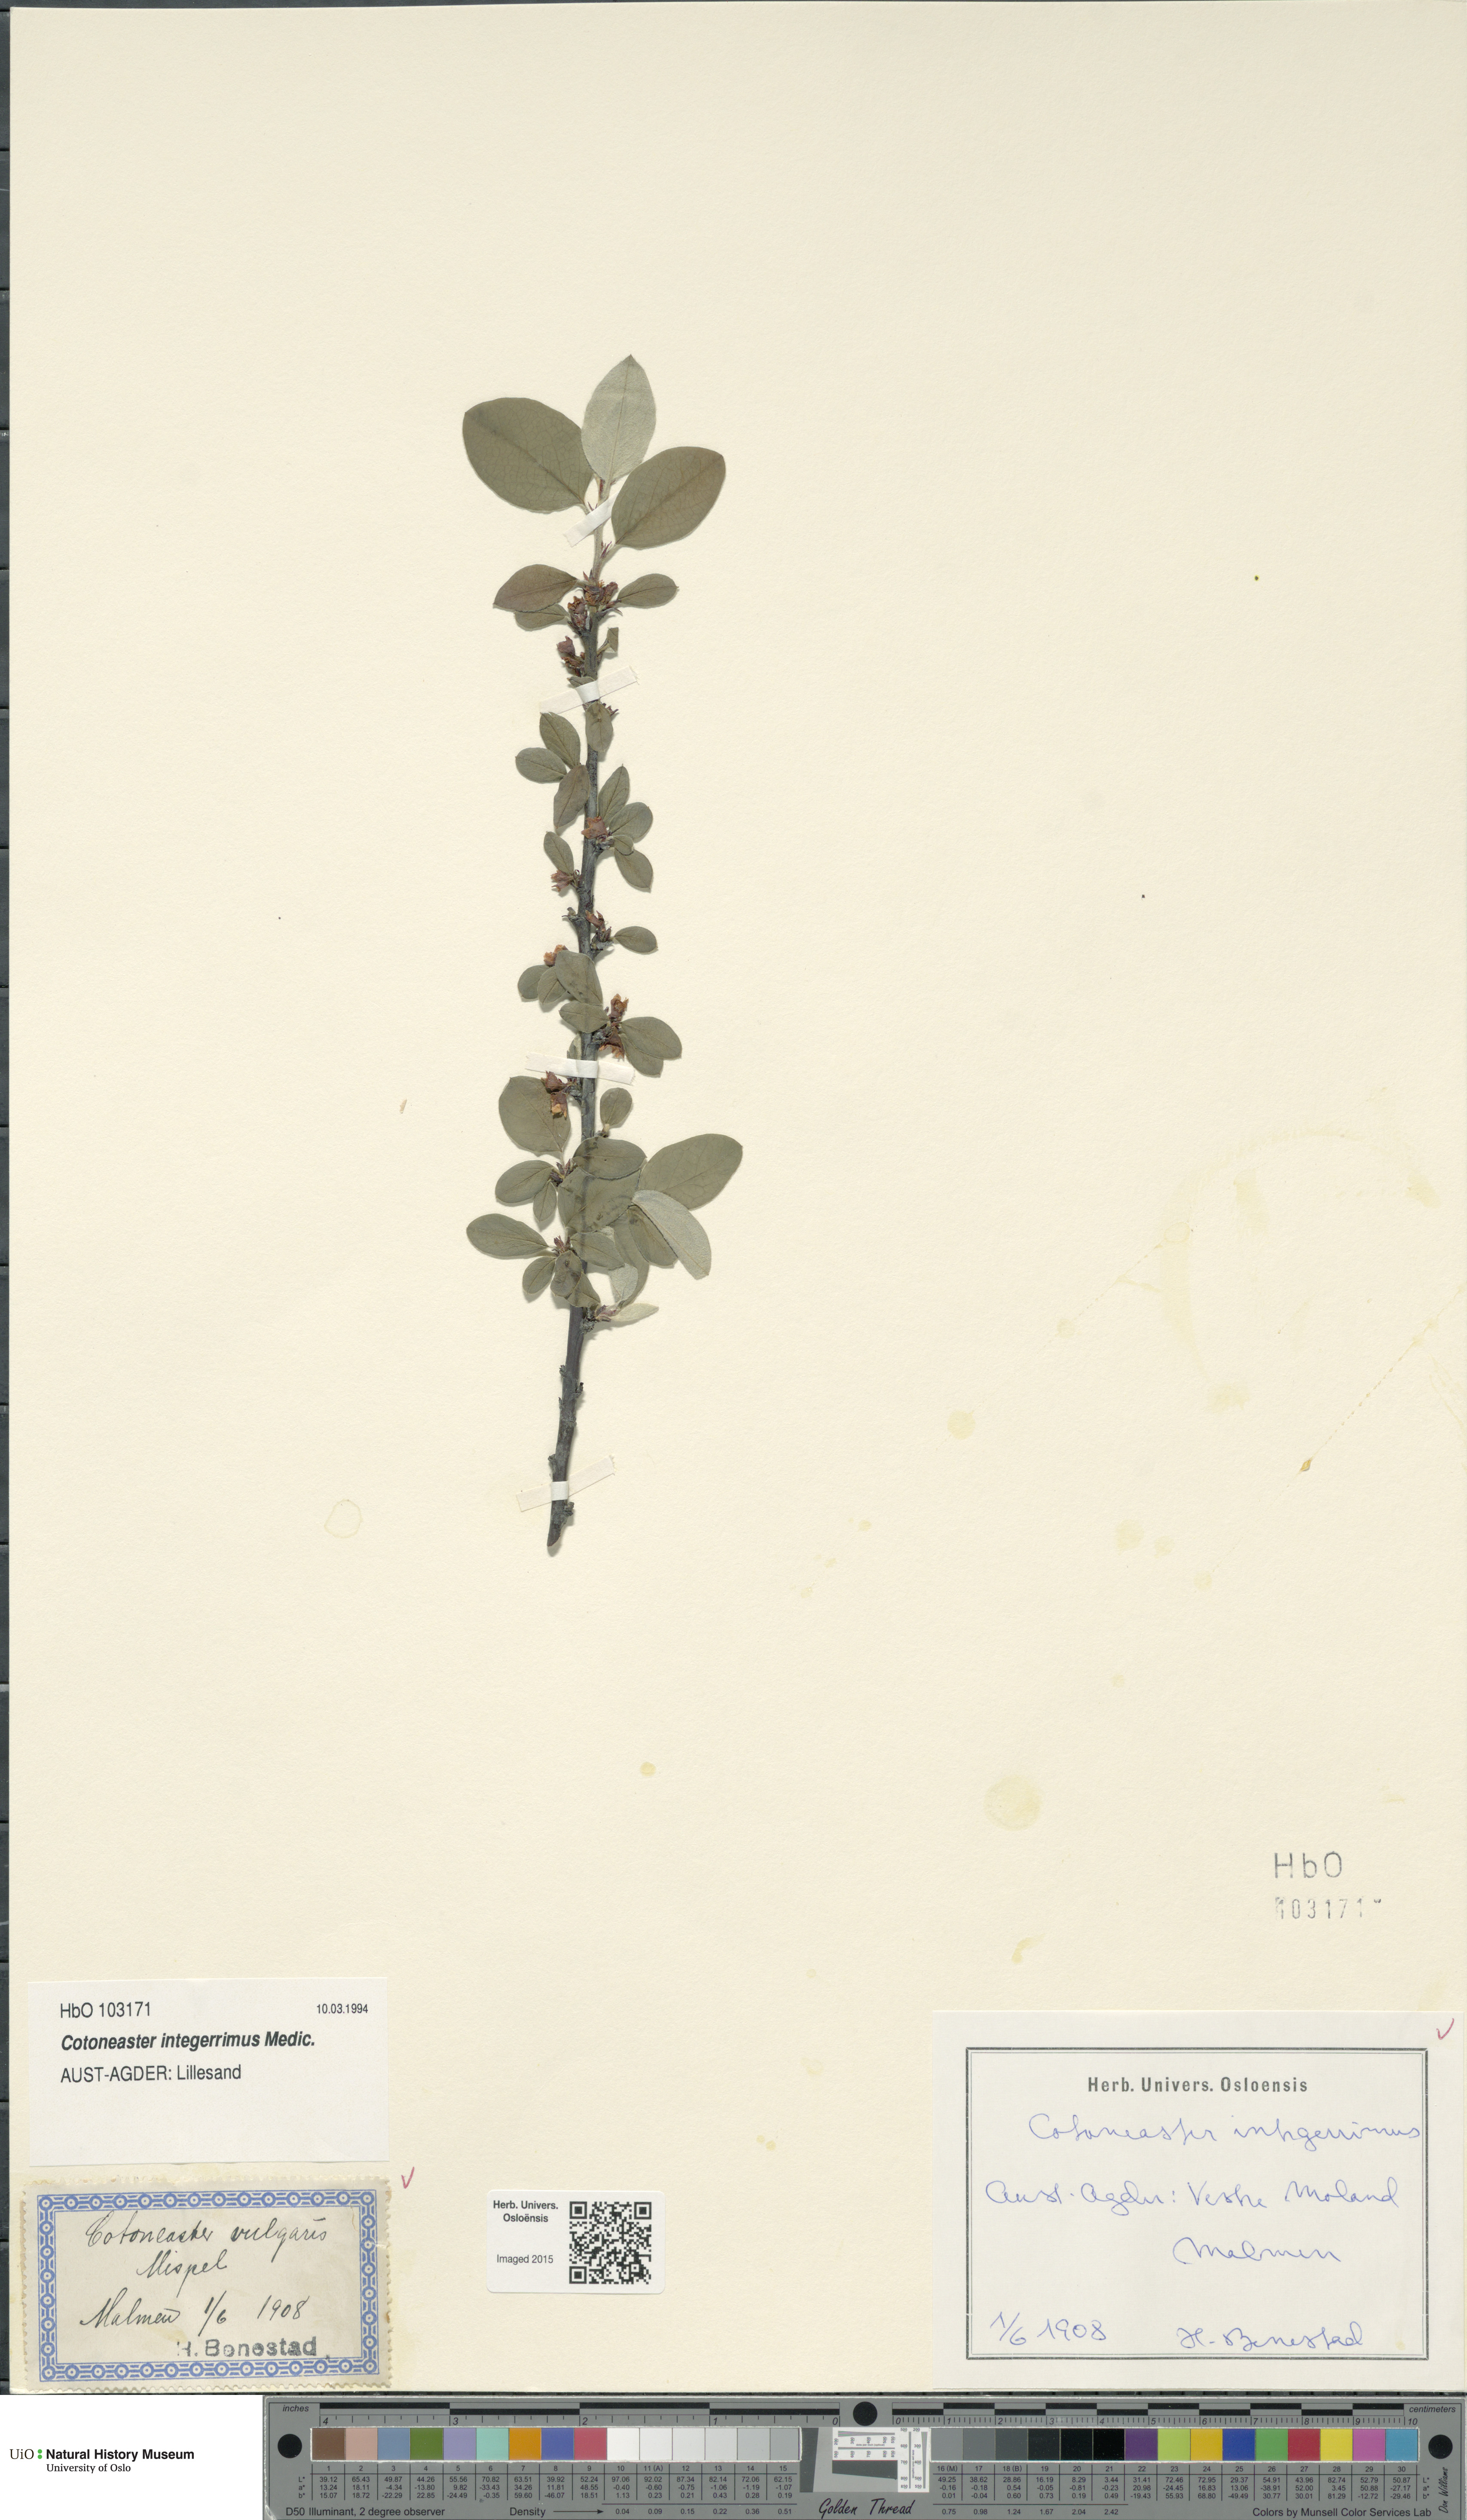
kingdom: Plantae
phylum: Tracheophyta
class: Magnoliopsida
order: Rosales
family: Rosaceae
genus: Cotoneaster
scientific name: Cotoneaster integerrimus
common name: Wild cotoneaster
